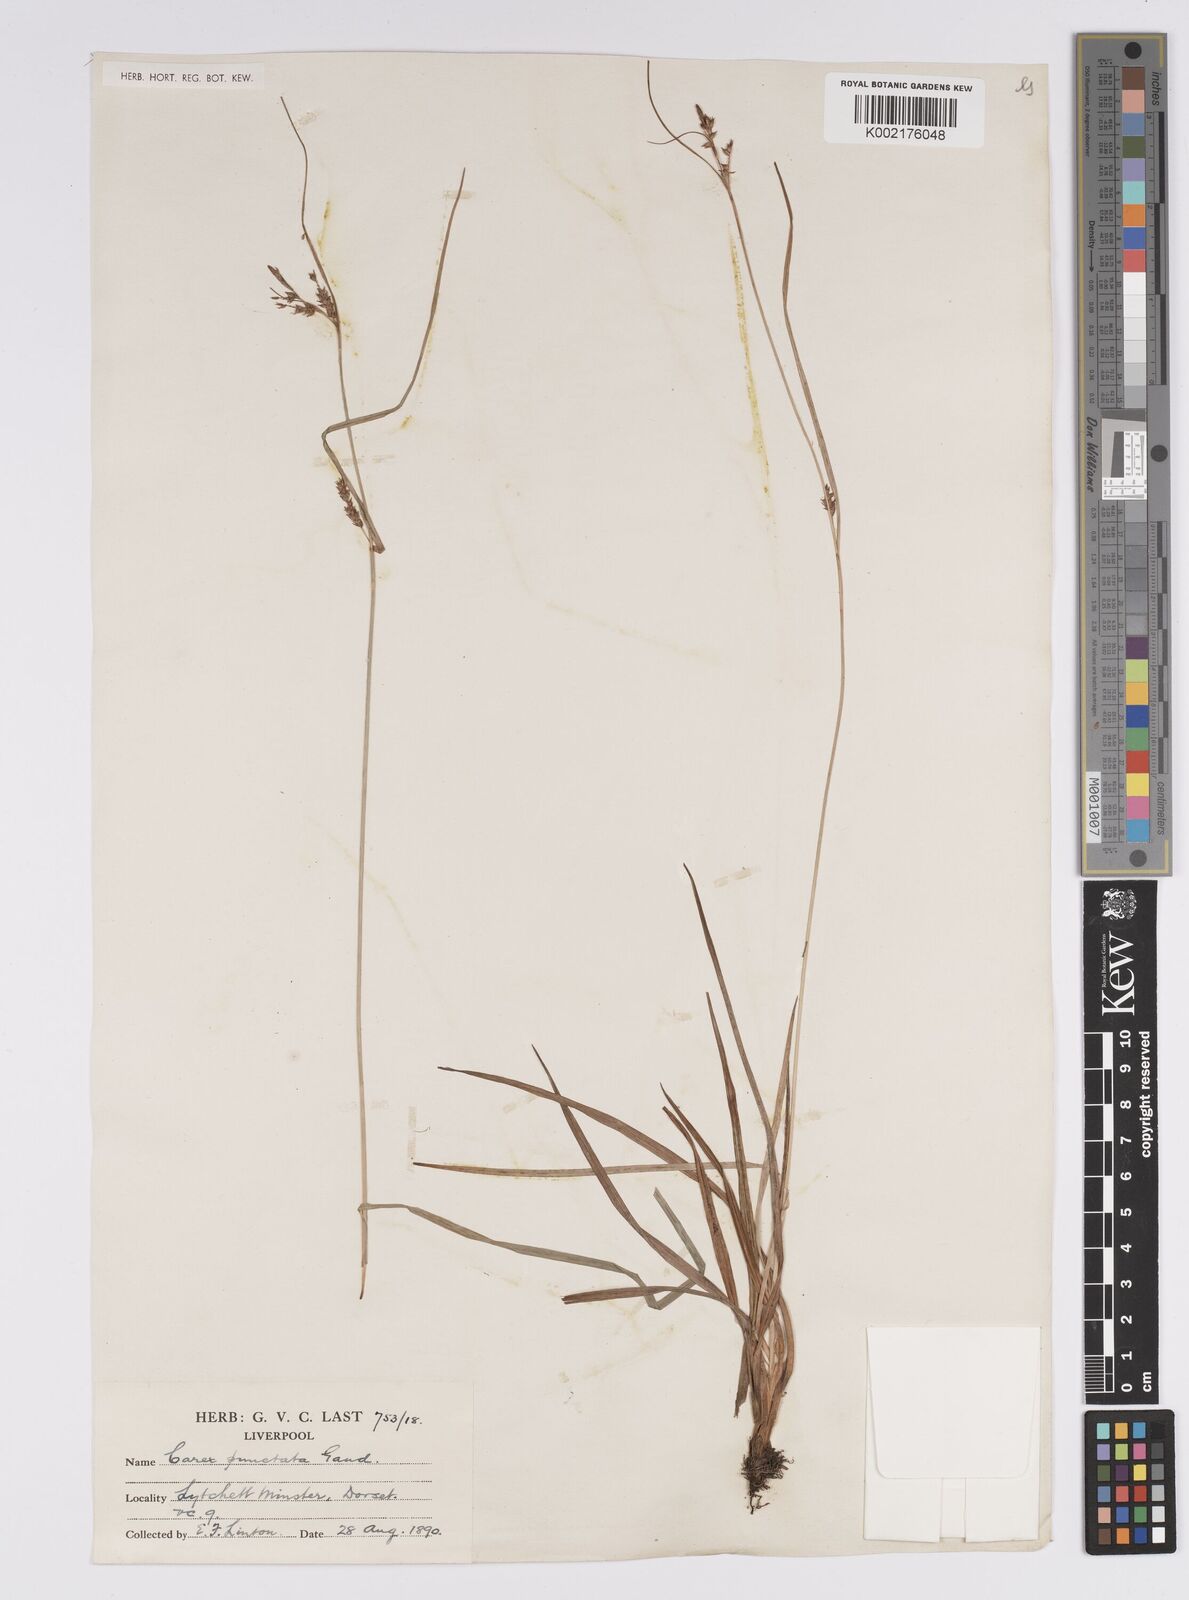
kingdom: Plantae
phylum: Tracheophyta
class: Liliopsida
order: Poales
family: Cyperaceae
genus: Carex
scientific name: Carex punctata
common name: Dotted sedge
